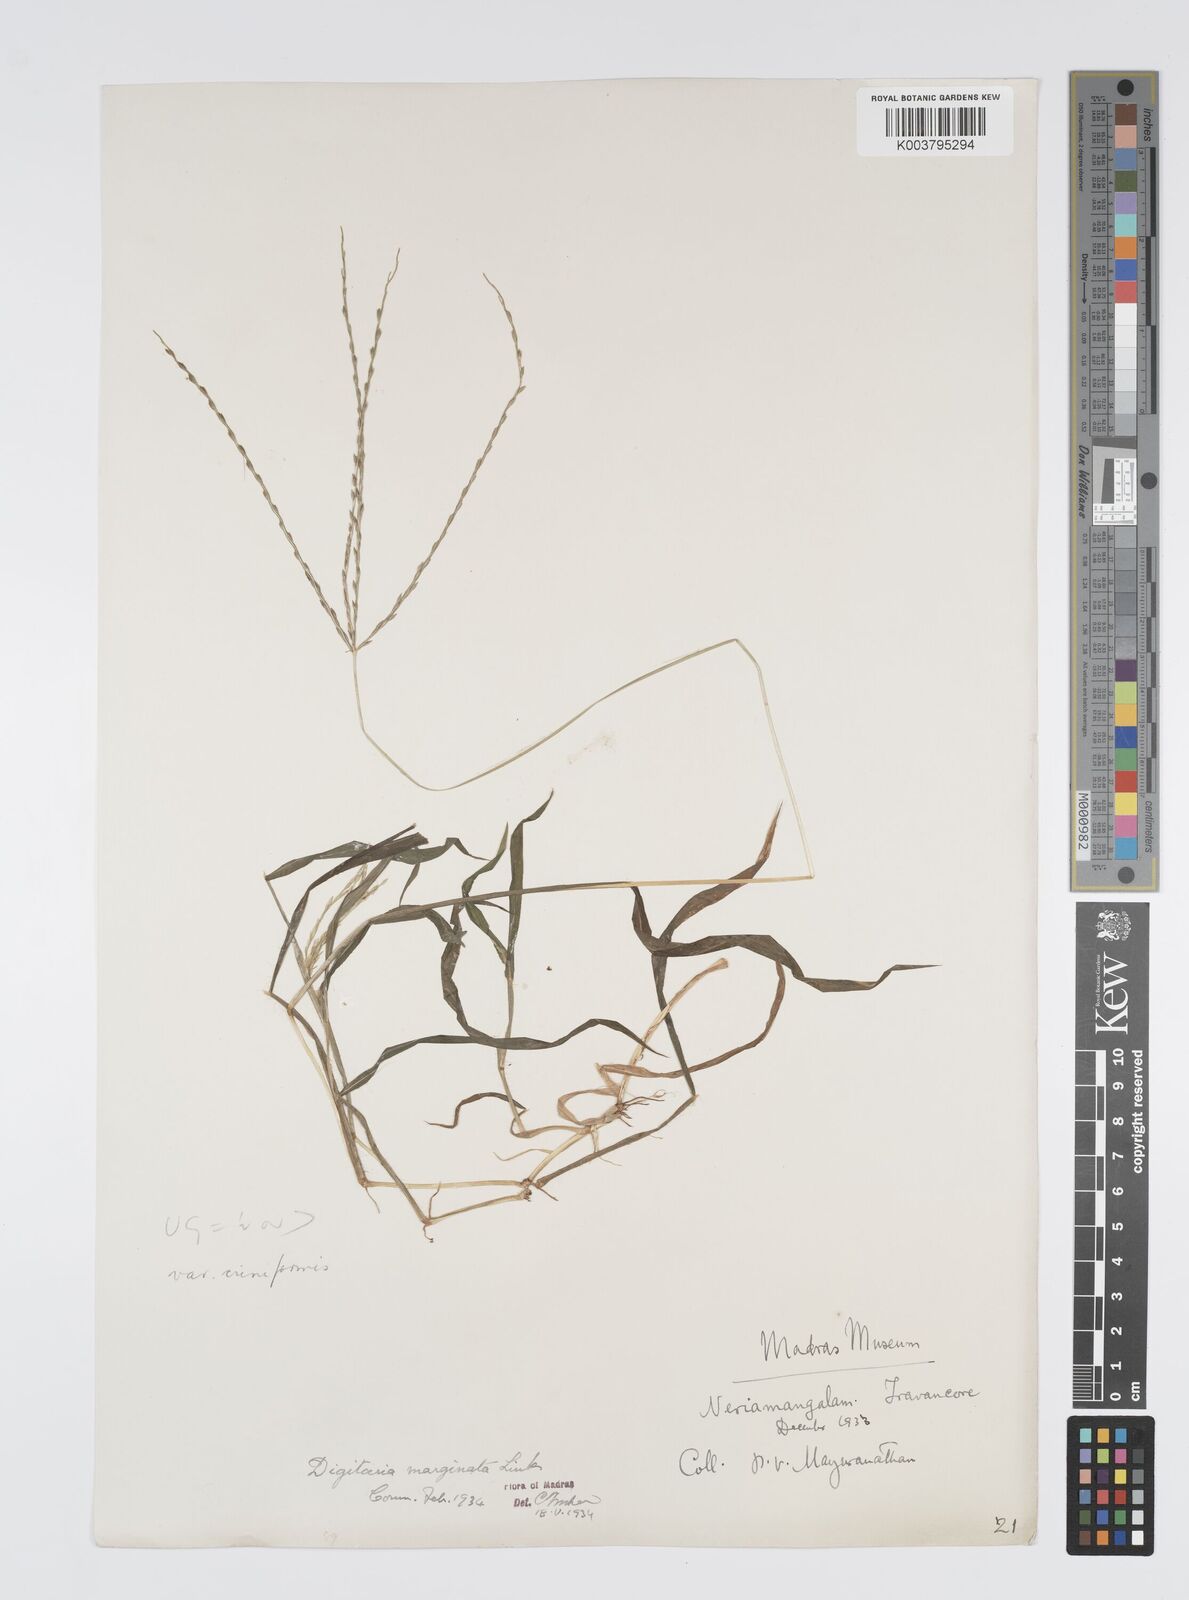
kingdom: Plantae
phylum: Tracheophyta
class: Liliopsida
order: Poales
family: Poaceae
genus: Digitaria
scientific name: Digitaria spec
